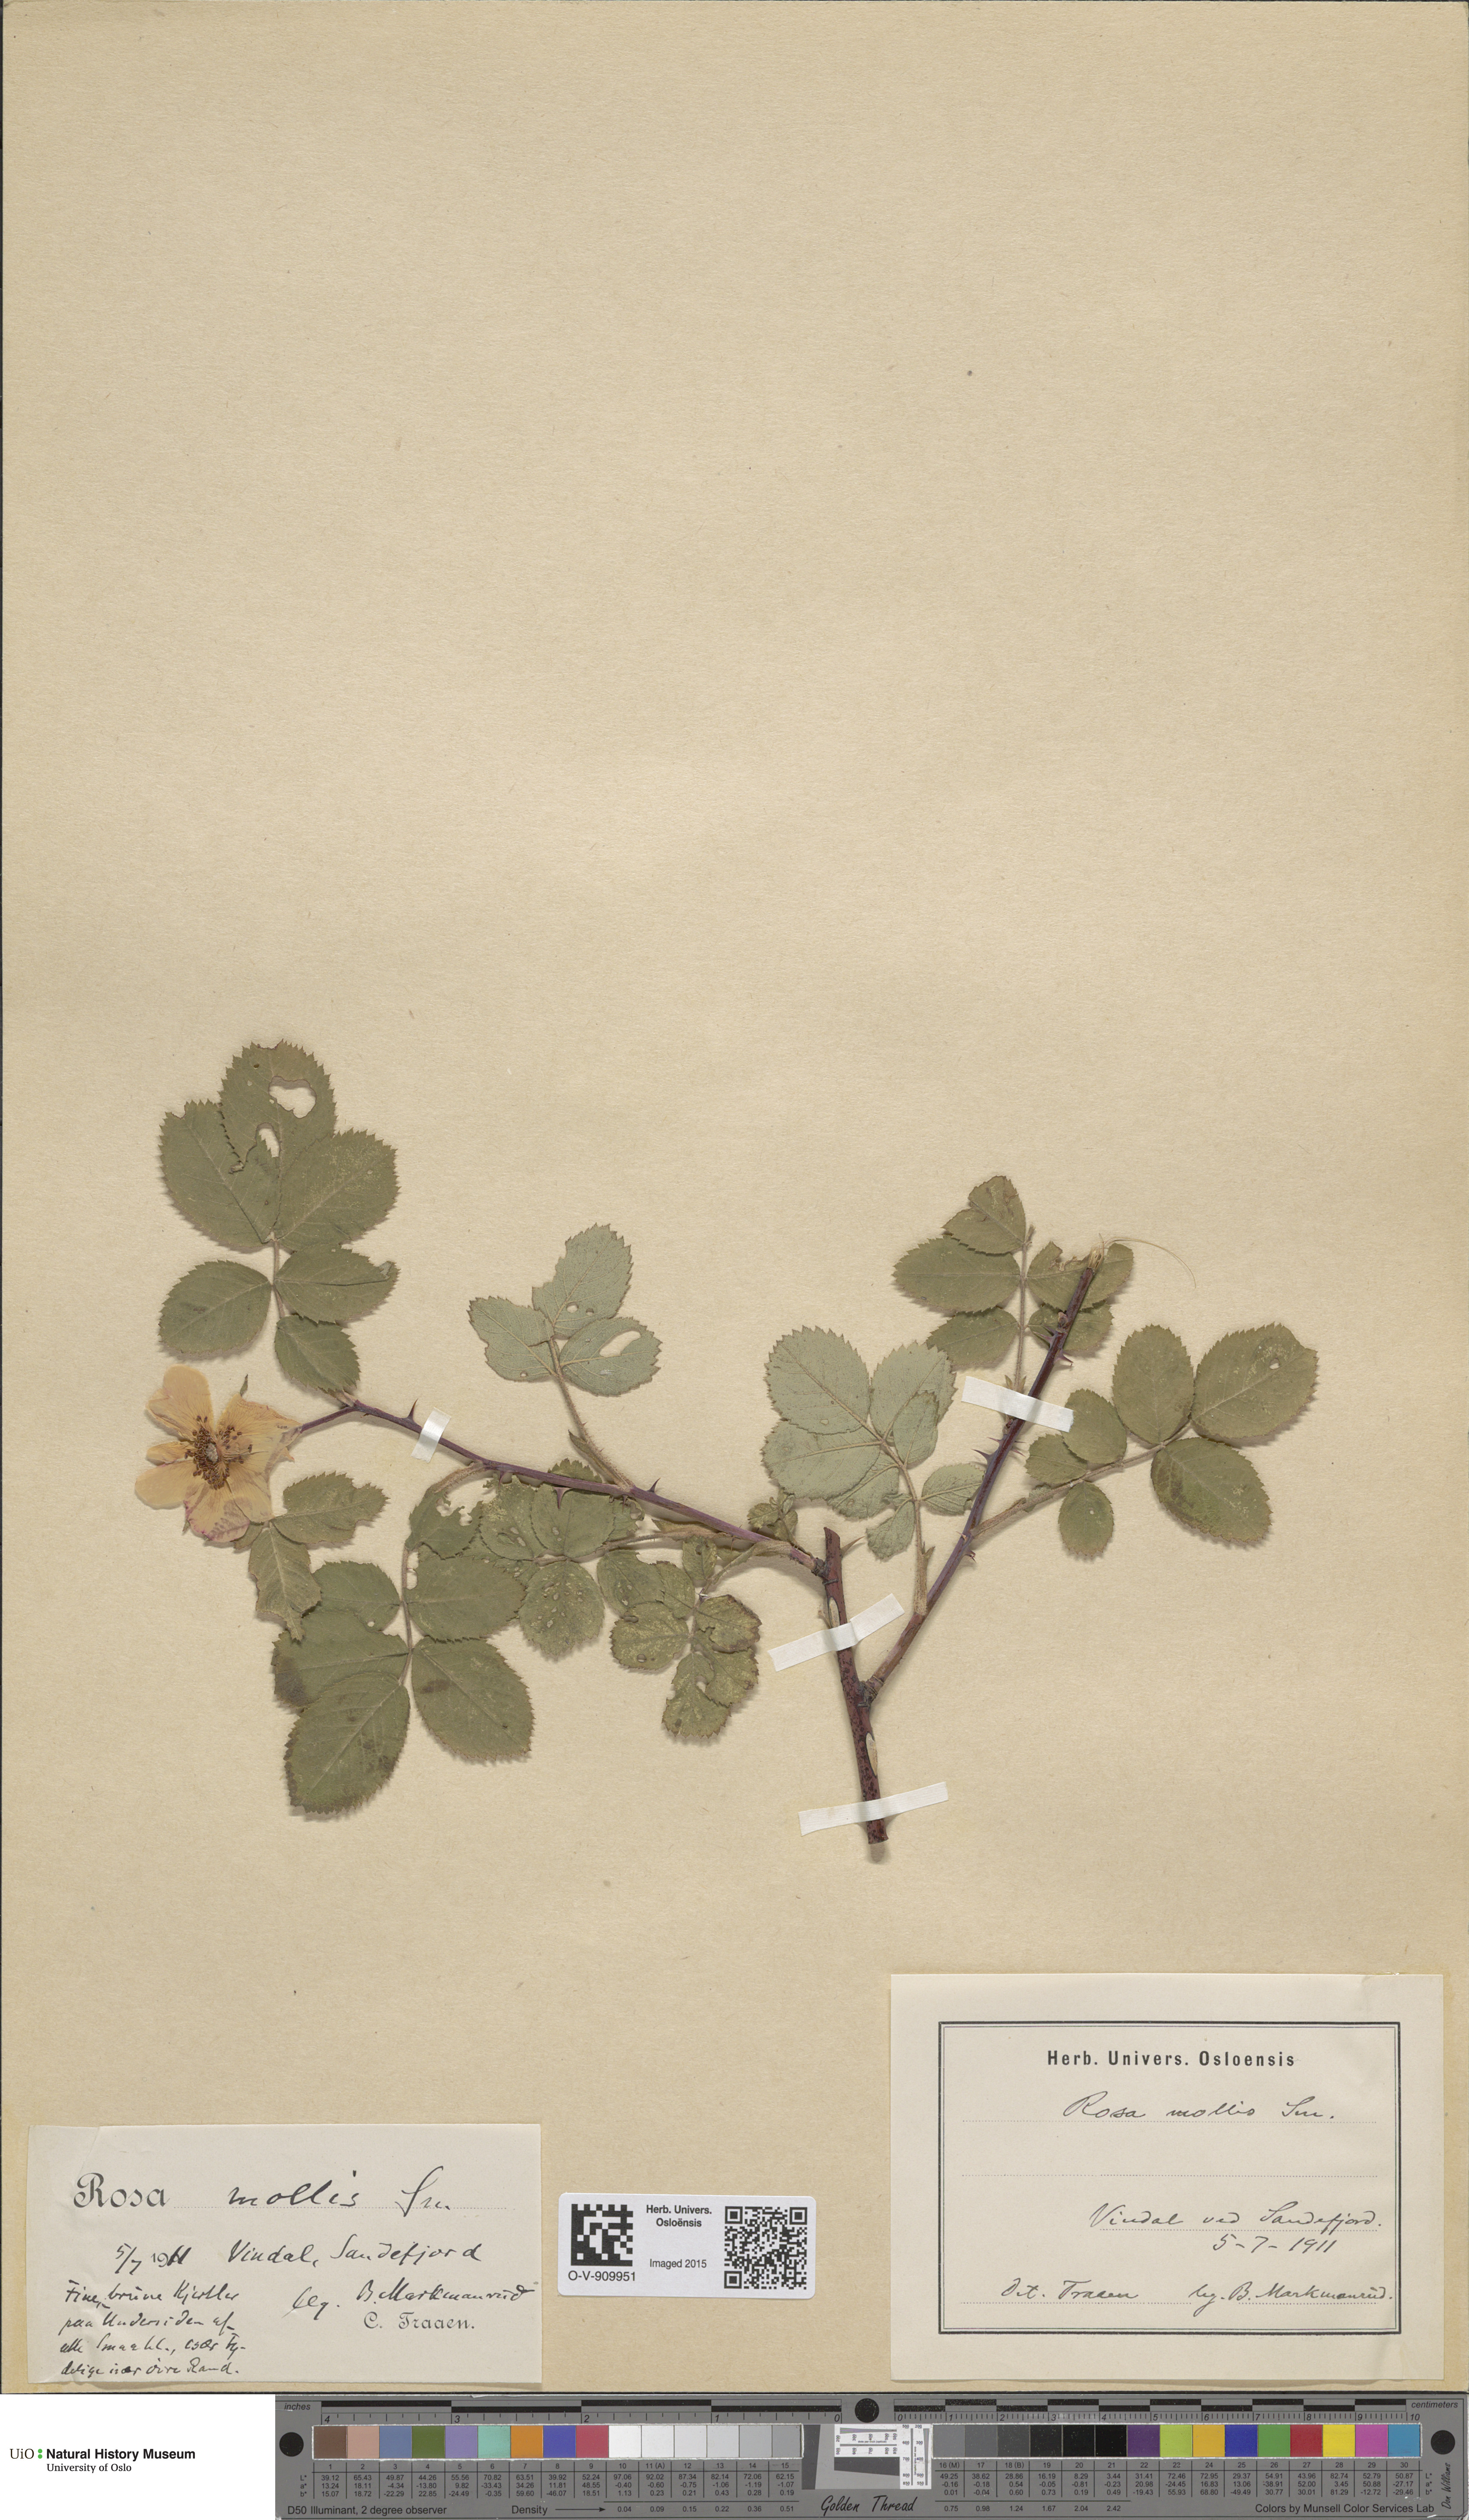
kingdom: Plantae
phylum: Tracheophyta
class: Magnoliopsida
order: Rosales
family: Rosaceae
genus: Rosa
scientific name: Rosa mollis
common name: Rose
